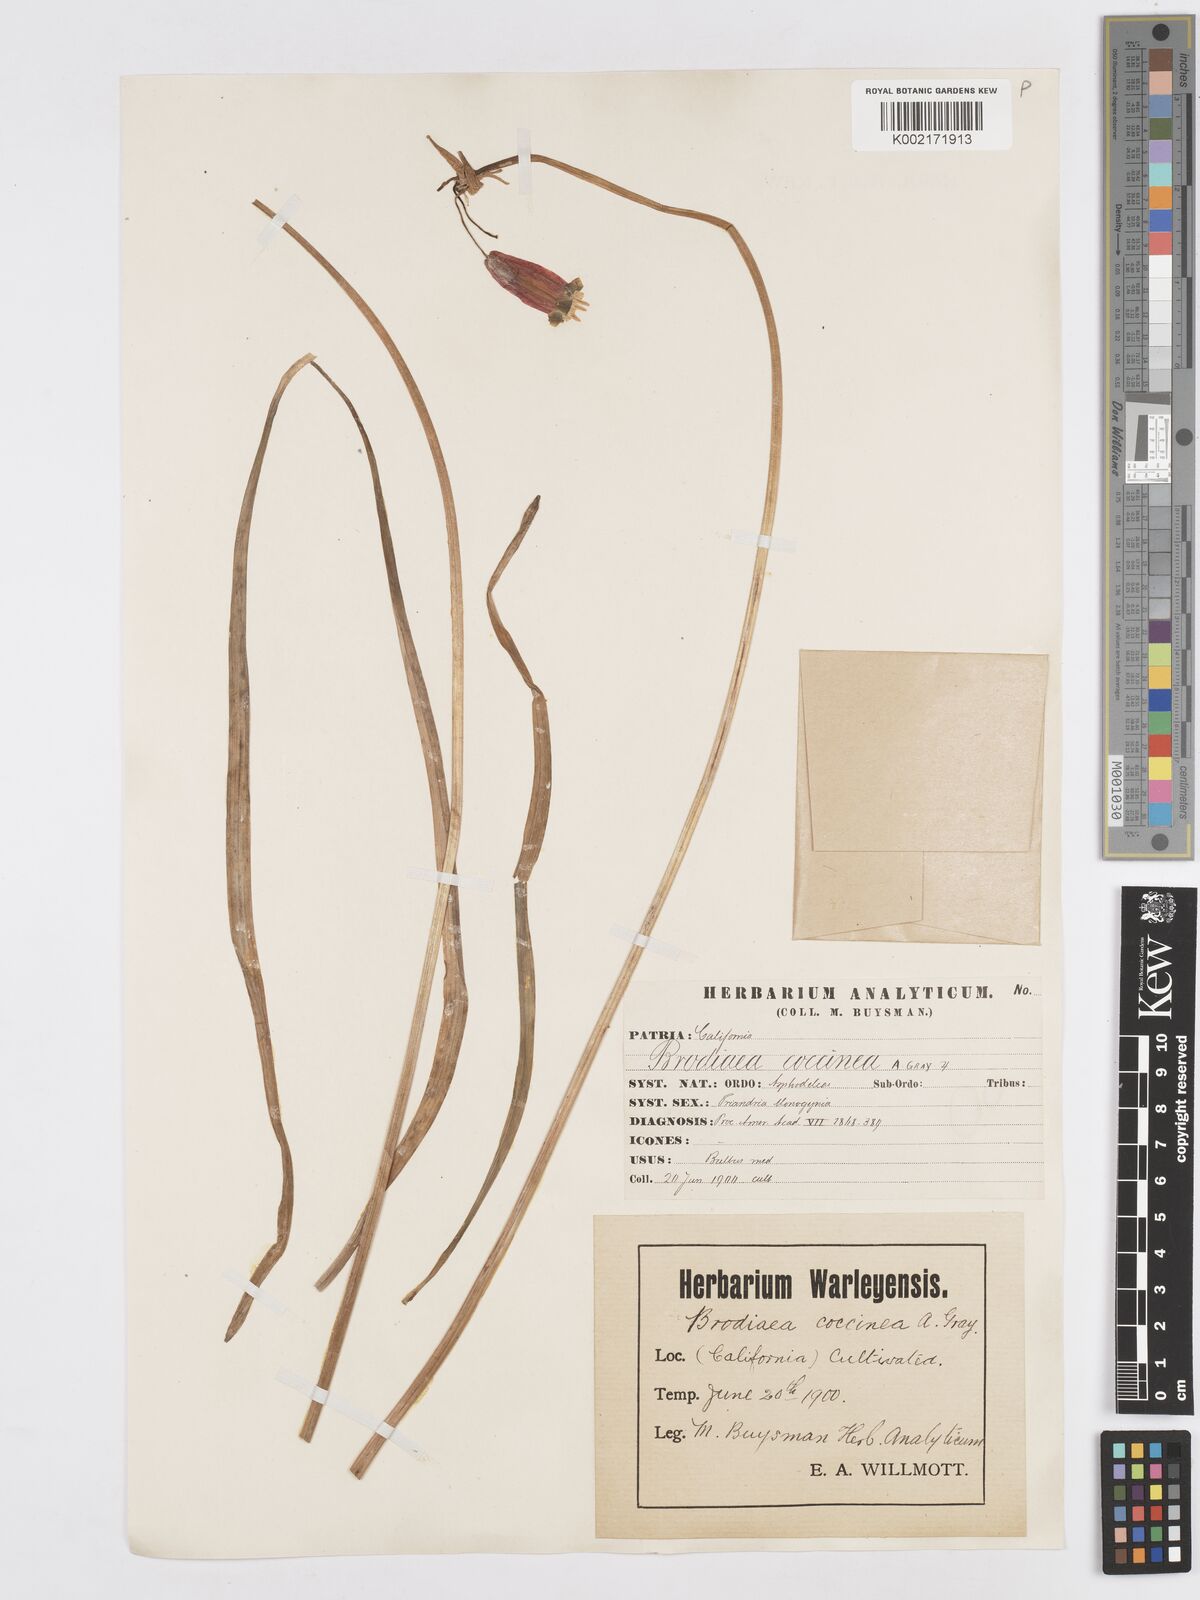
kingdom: Plantae
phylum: Tracheophyta
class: Liliopsida
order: Asparagales
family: Asparagaceae
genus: Dichelostemma
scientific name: Dichelostemma ida-maia
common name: Firecracker-flower
